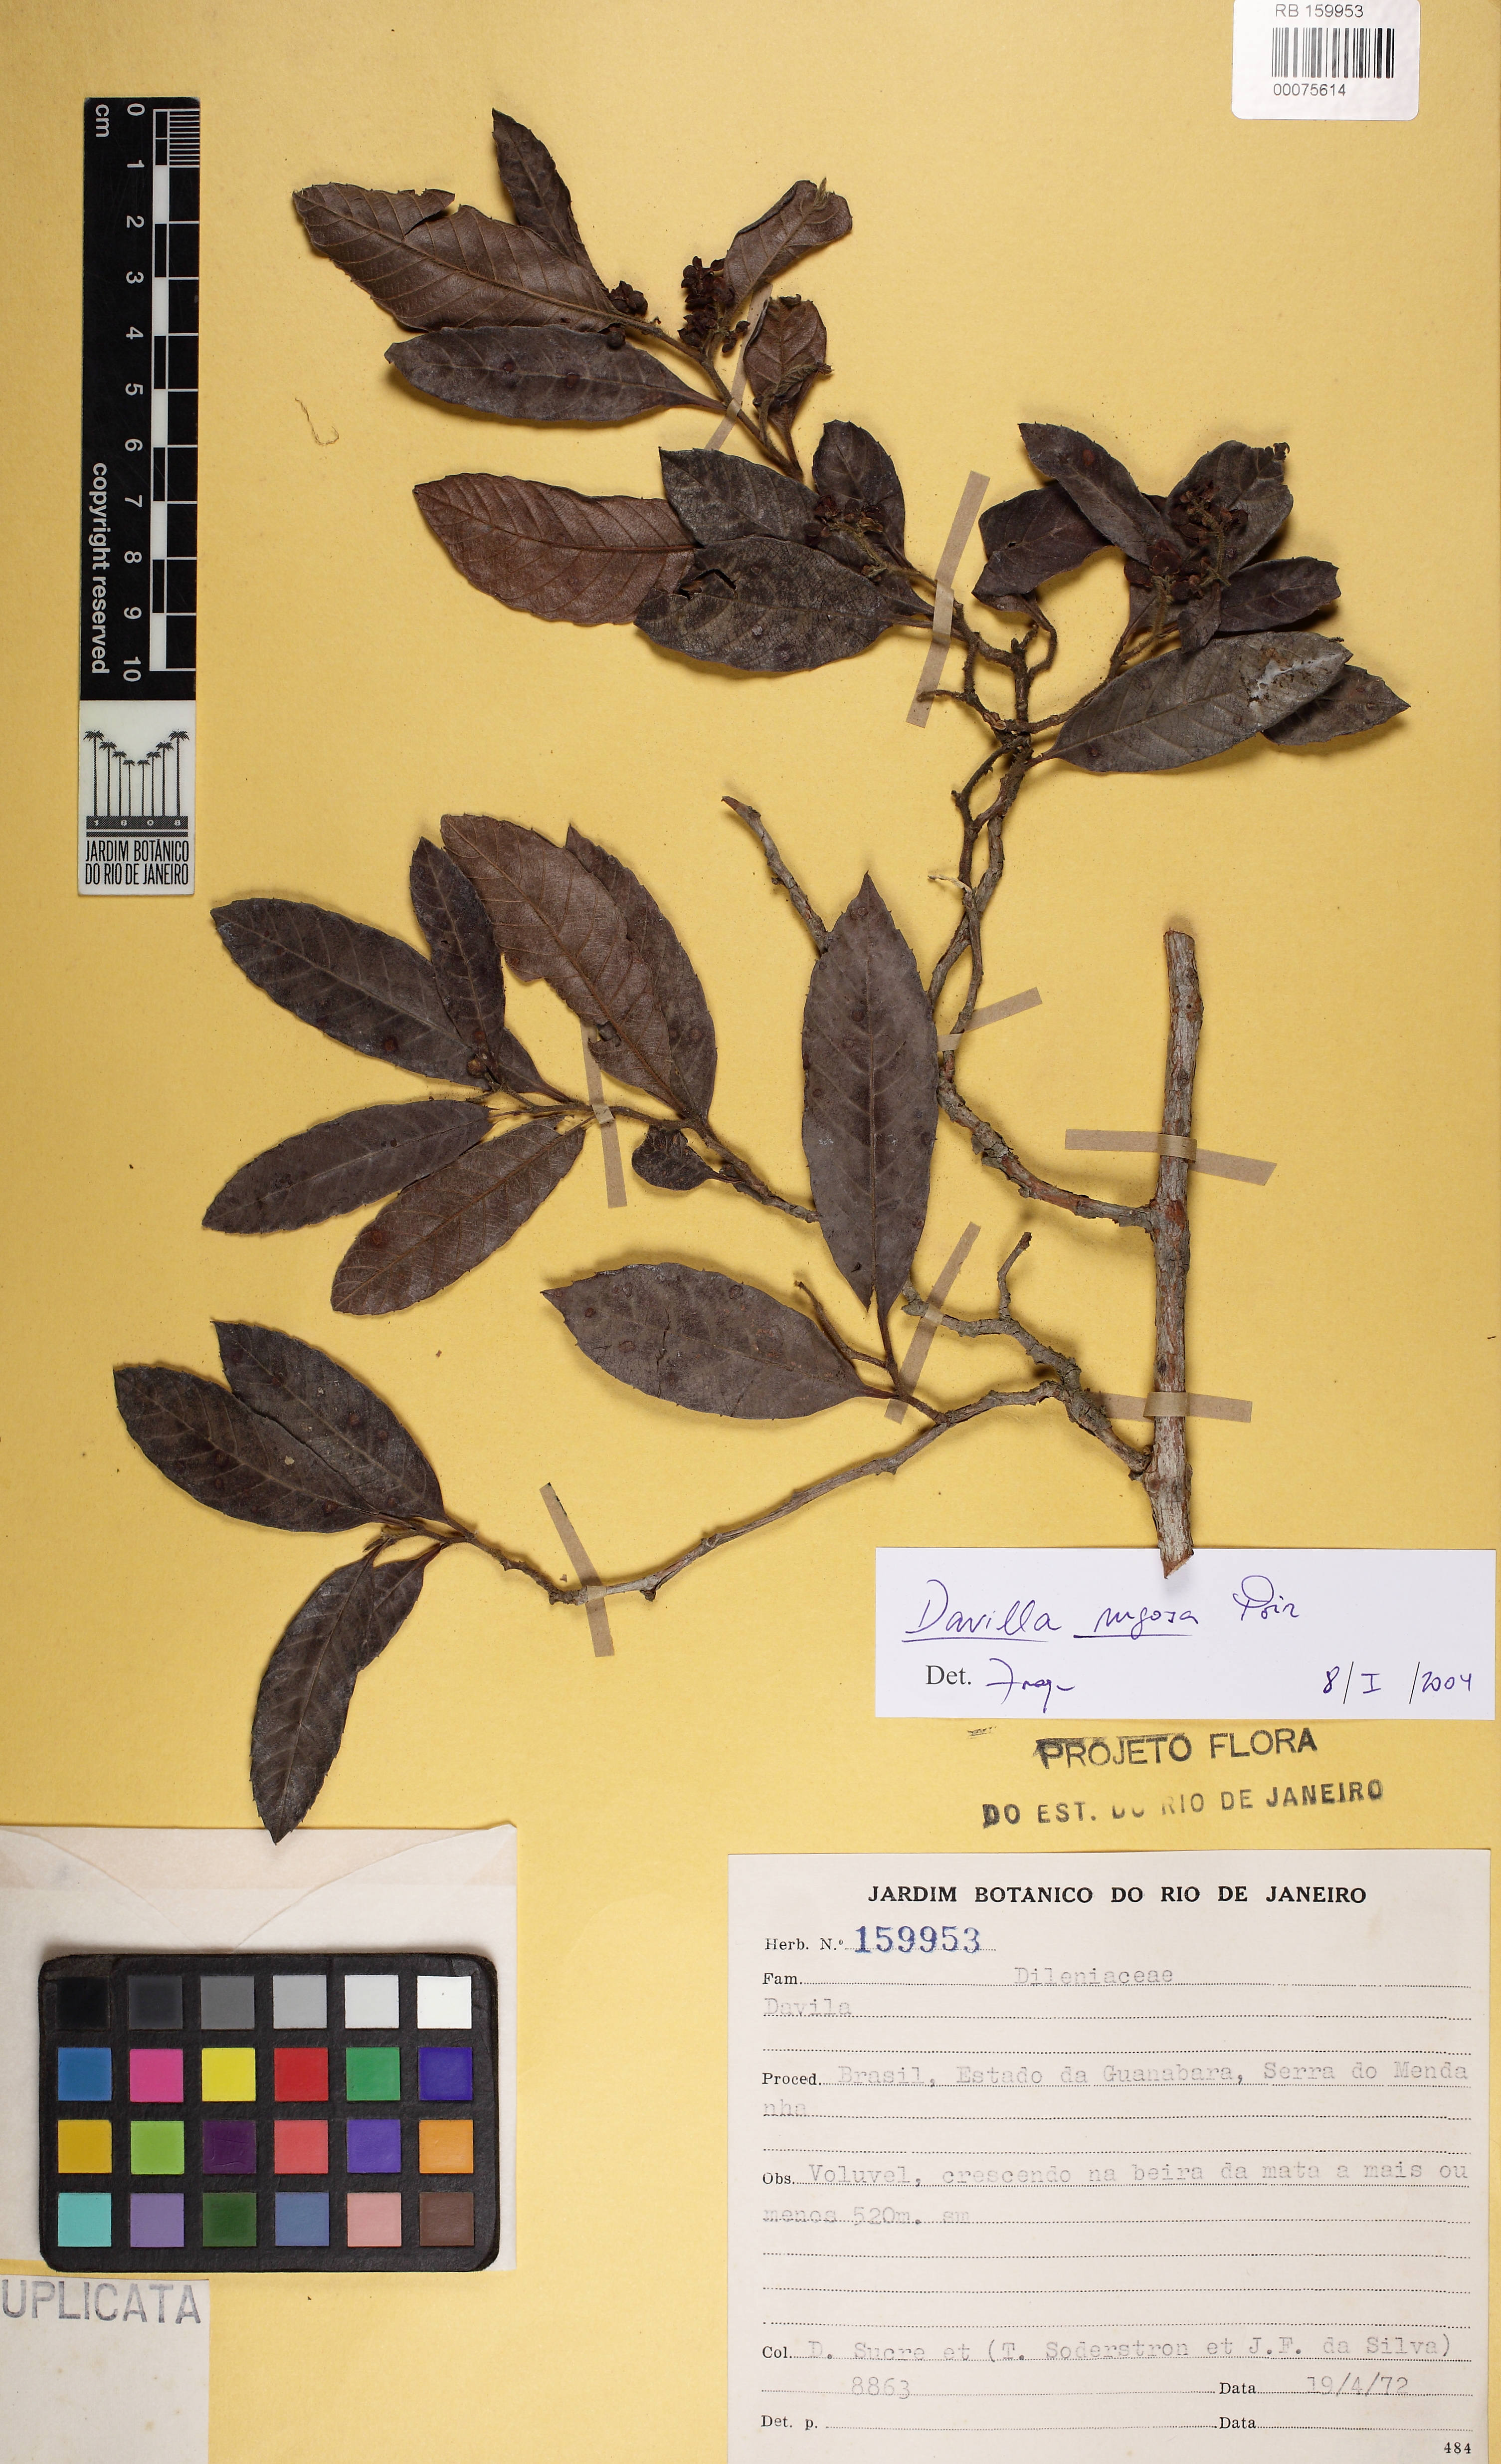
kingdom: Plantae
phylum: Tracheophyta
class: Magnoliopsida
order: Dilleniales
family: Dilleniaceae
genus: Davilla
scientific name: Davilla rugosa
